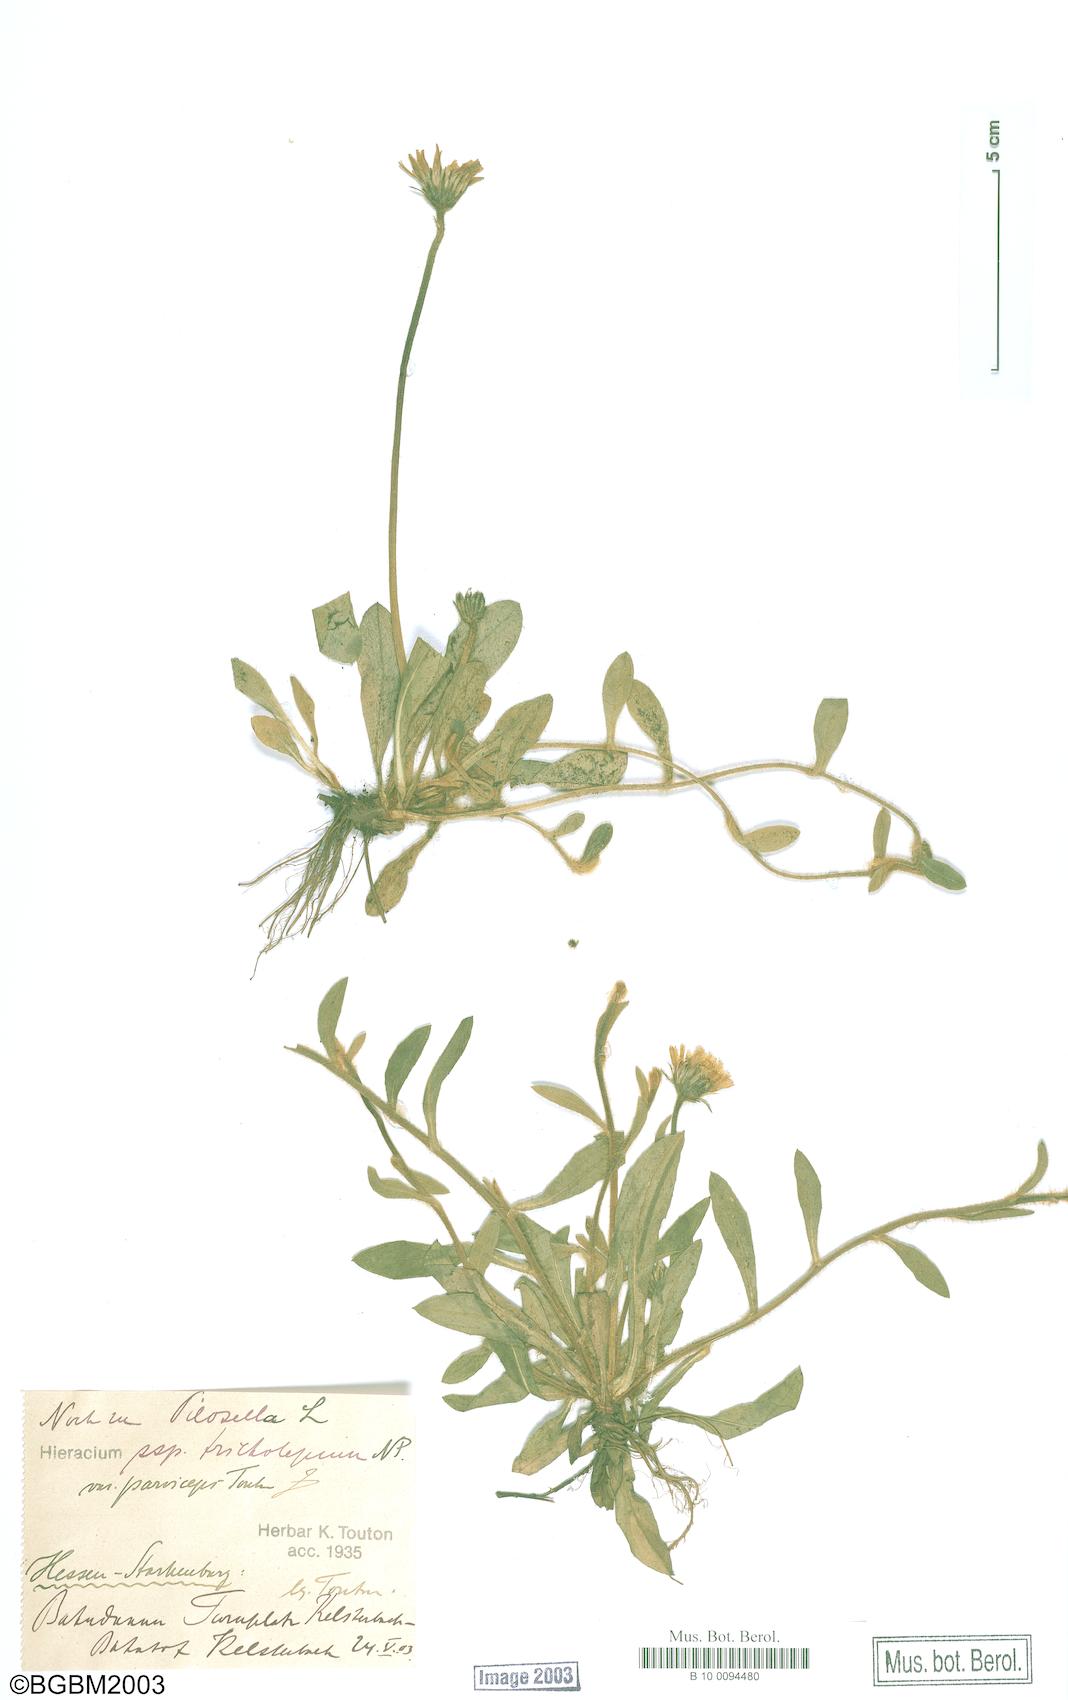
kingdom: Plantae
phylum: Tracheophyta
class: Magnoliopsida
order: Asterales
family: Asteraceae
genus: Pilosella
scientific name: Pilosella officinarum
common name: Mouse-ear hawkweed
